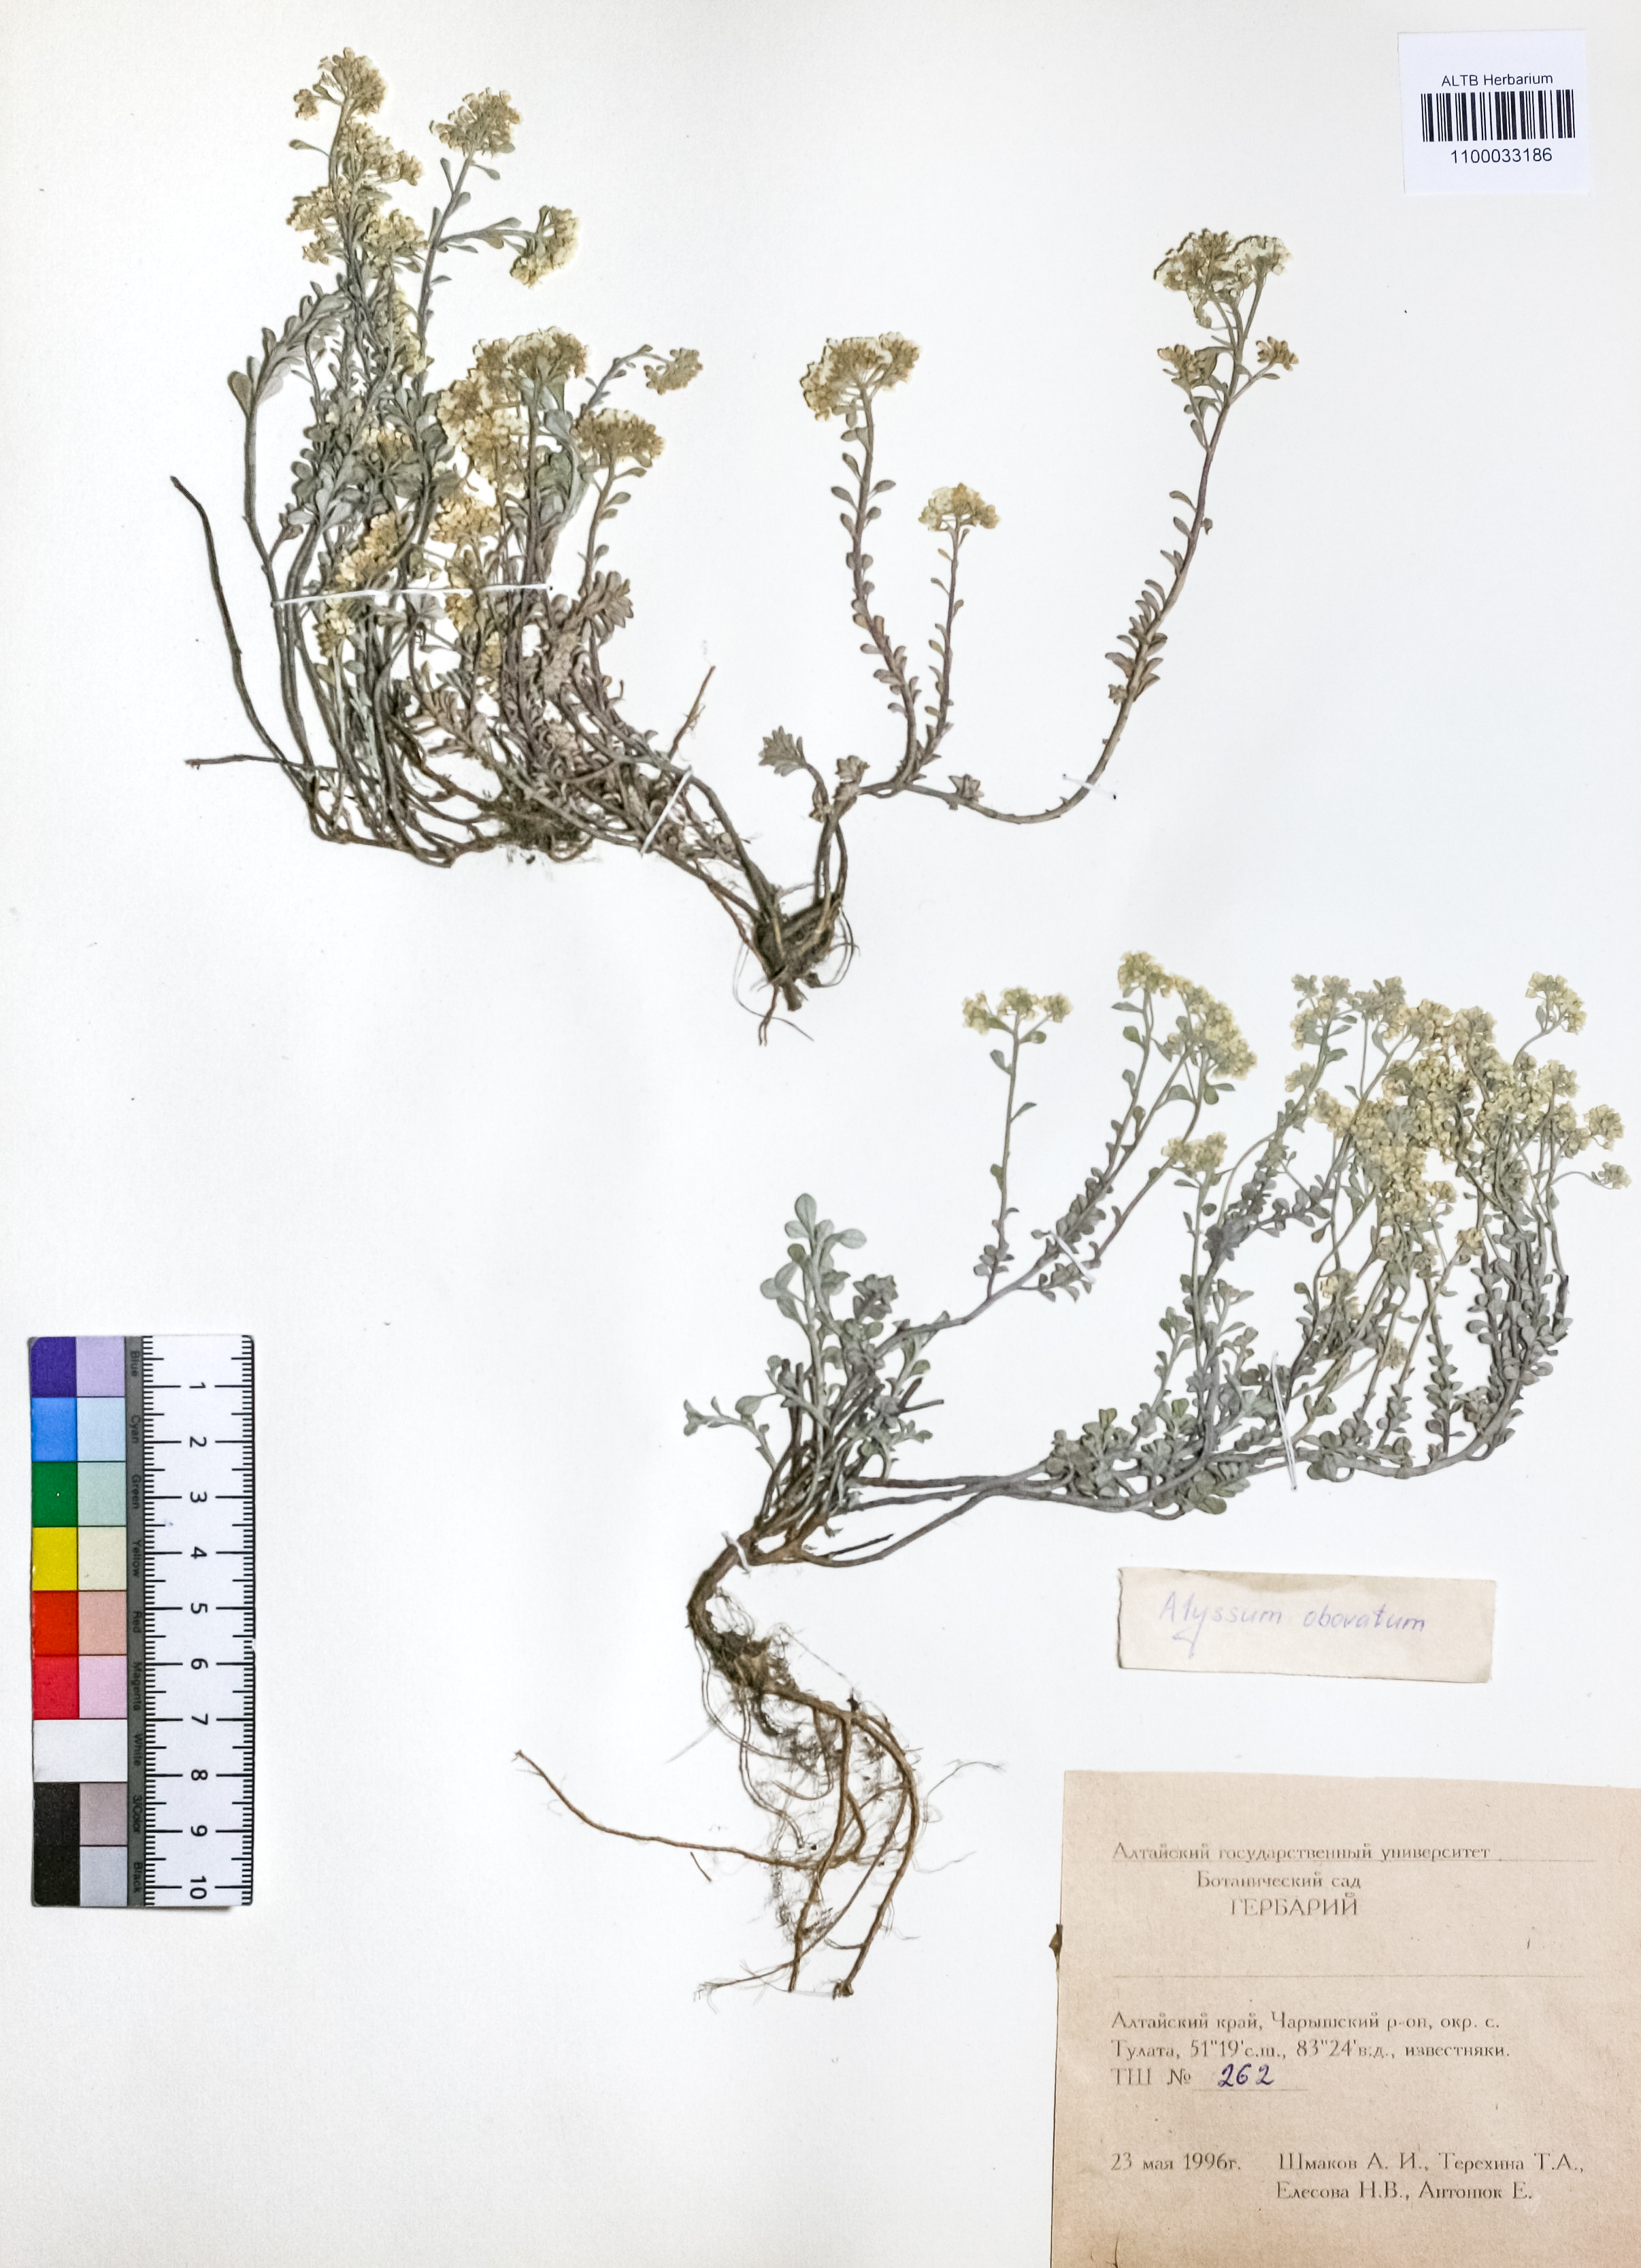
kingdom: Plantae
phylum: Tracheophyta
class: Magnoliopsida
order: Brassicales
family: Brassicaceae
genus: Odontarrhena
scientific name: Odontarrhena obovata
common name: American alyssum
